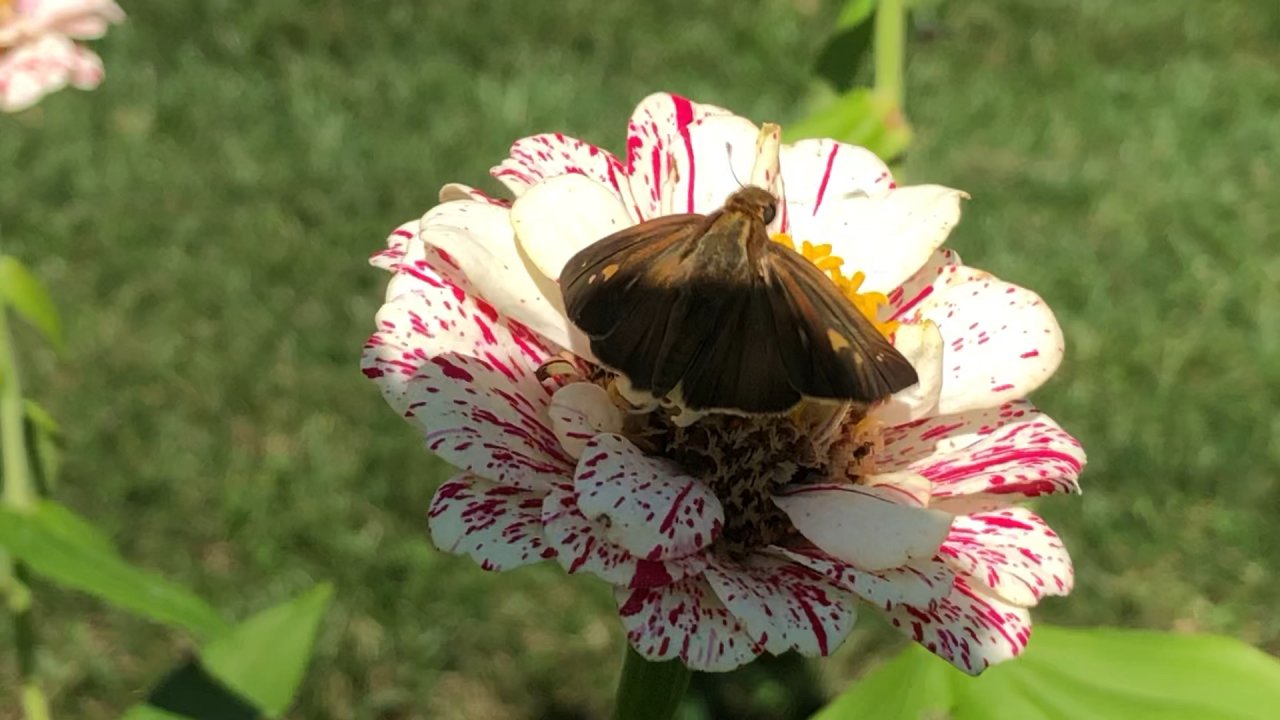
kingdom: Animalia
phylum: Arthropoda
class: Insecta
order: Lepidoptera
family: Hesperiidae
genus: Panoquina
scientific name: Panoquina ocola
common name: Ocola Skipper
